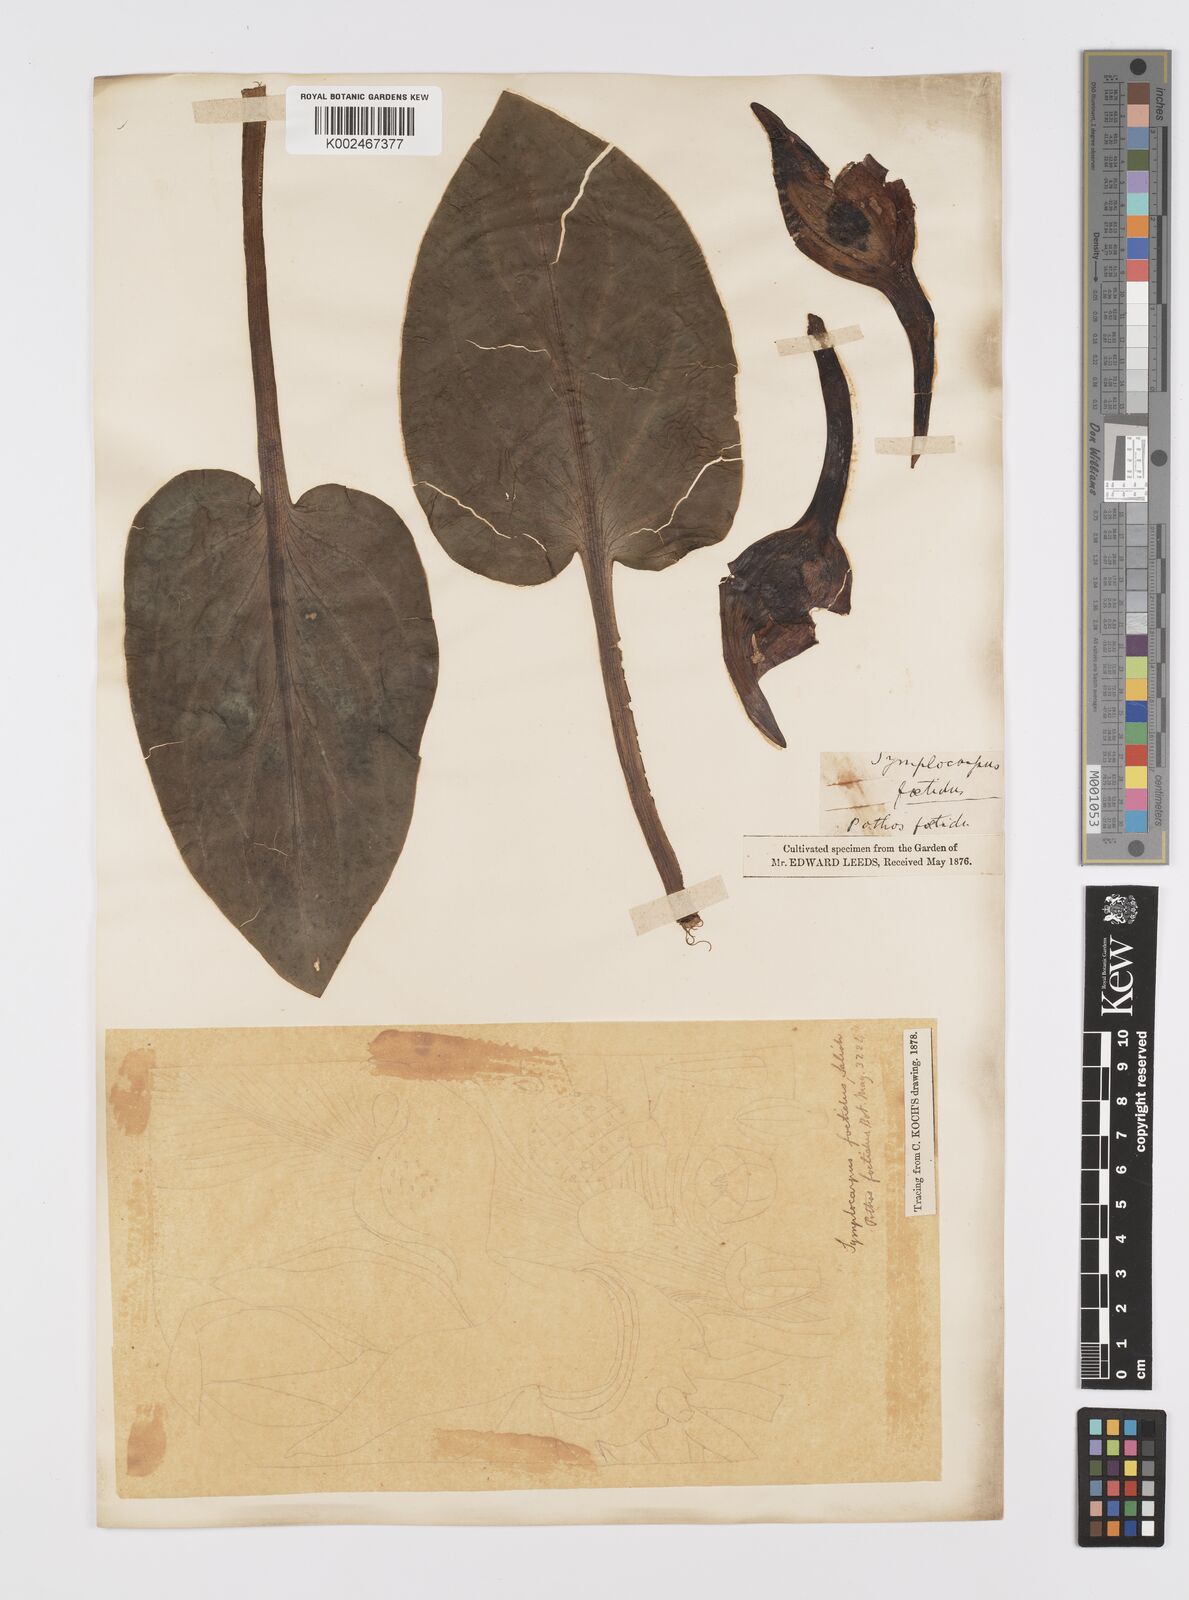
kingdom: Plantae
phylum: Tracheophyta
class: Liliopsida
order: Alismatales
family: Araceae
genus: Symplocarpus
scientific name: Symplocarpus foetidus
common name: Eastern skunk cabbage
